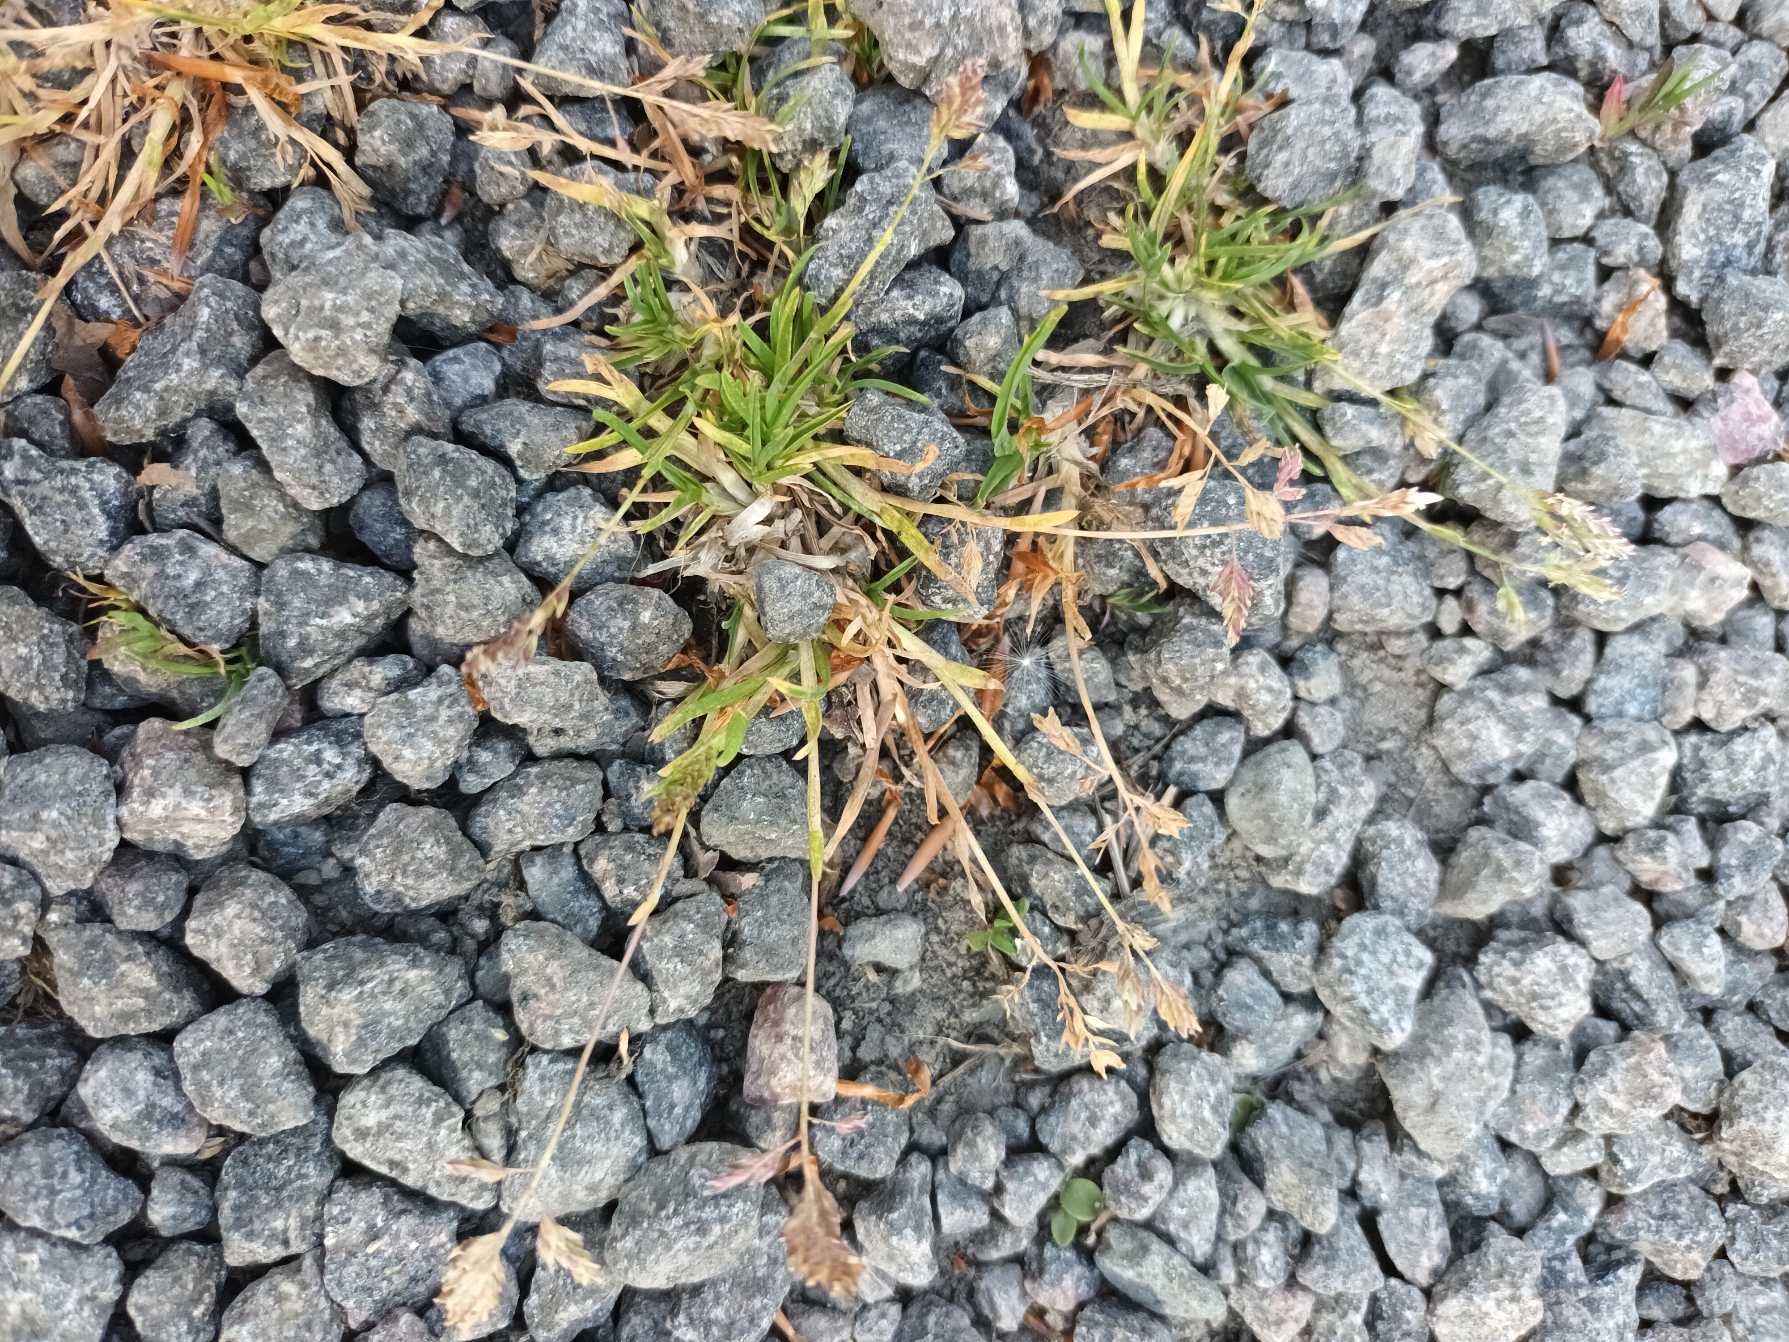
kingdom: Plantae
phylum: Tracheophyta
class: Liliopsida
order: Poales
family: Poaceae
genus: Poa
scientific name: Poa annua
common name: Enårig rapgræs
